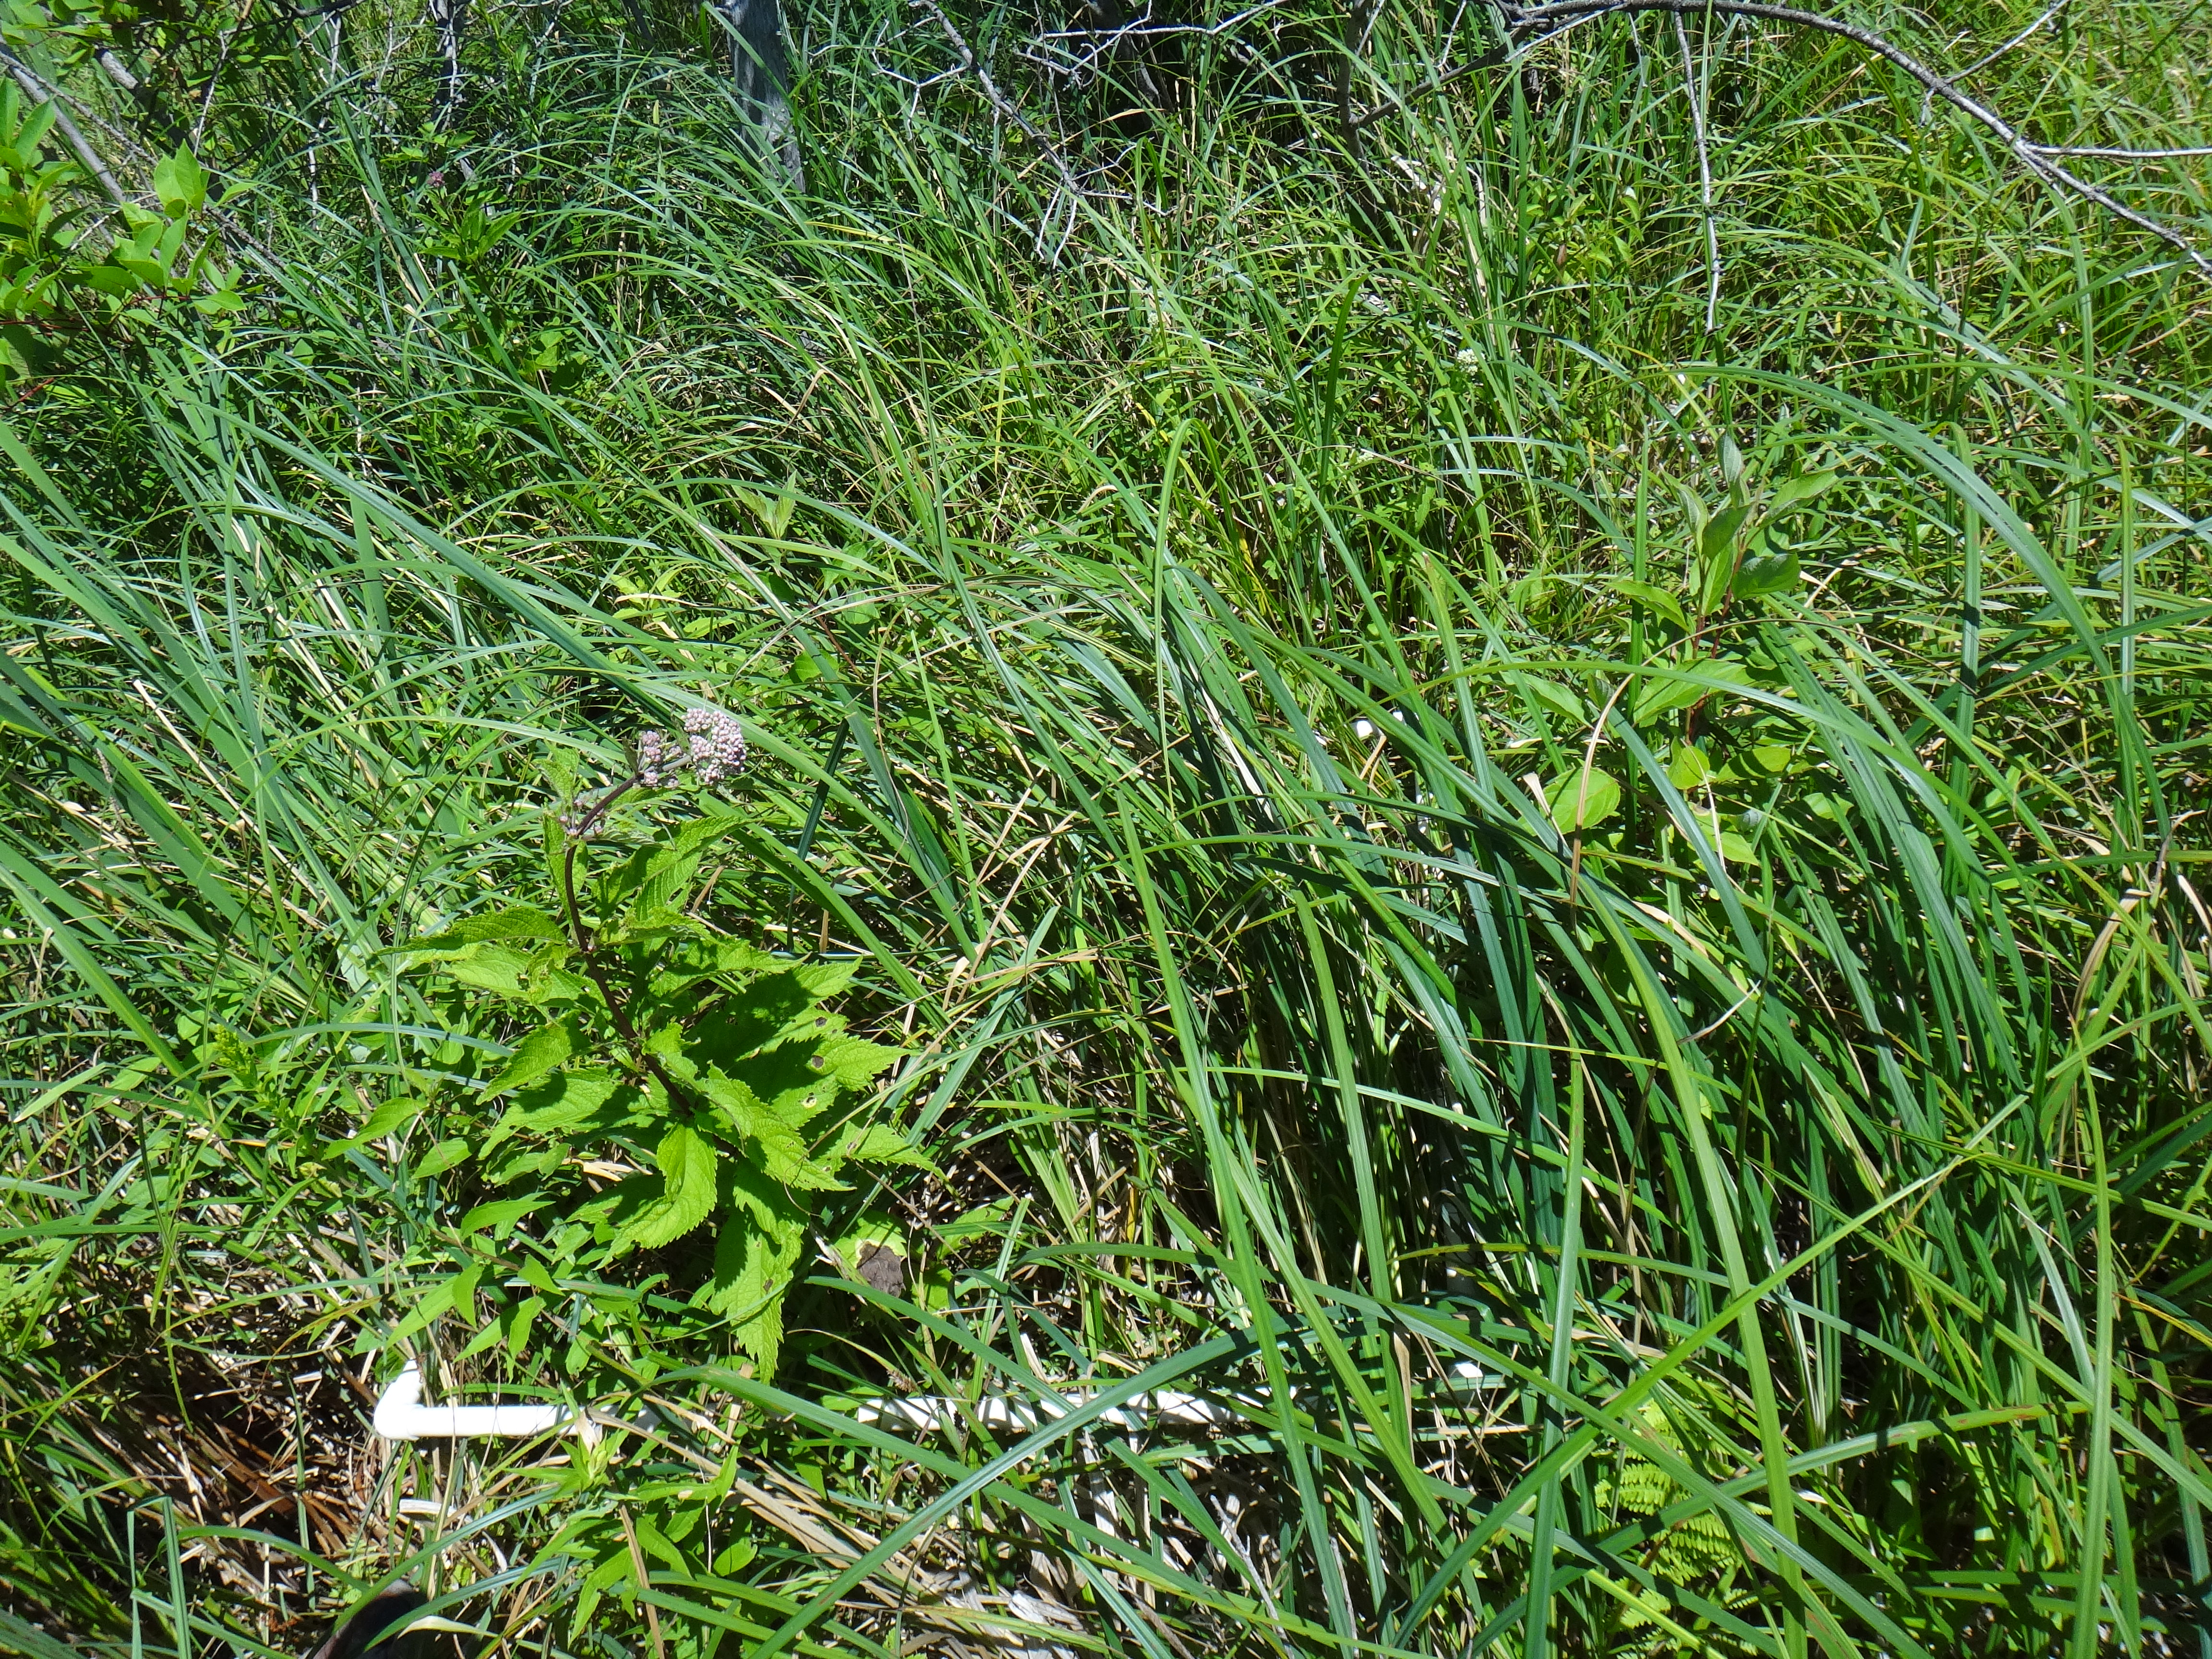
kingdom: Plantae
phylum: Tracheophyta
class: Polypodiopsida
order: Polypodiales
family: Thelypteridaceae
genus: Thelypteris
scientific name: Thelypteris palustris
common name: Marsh fern
